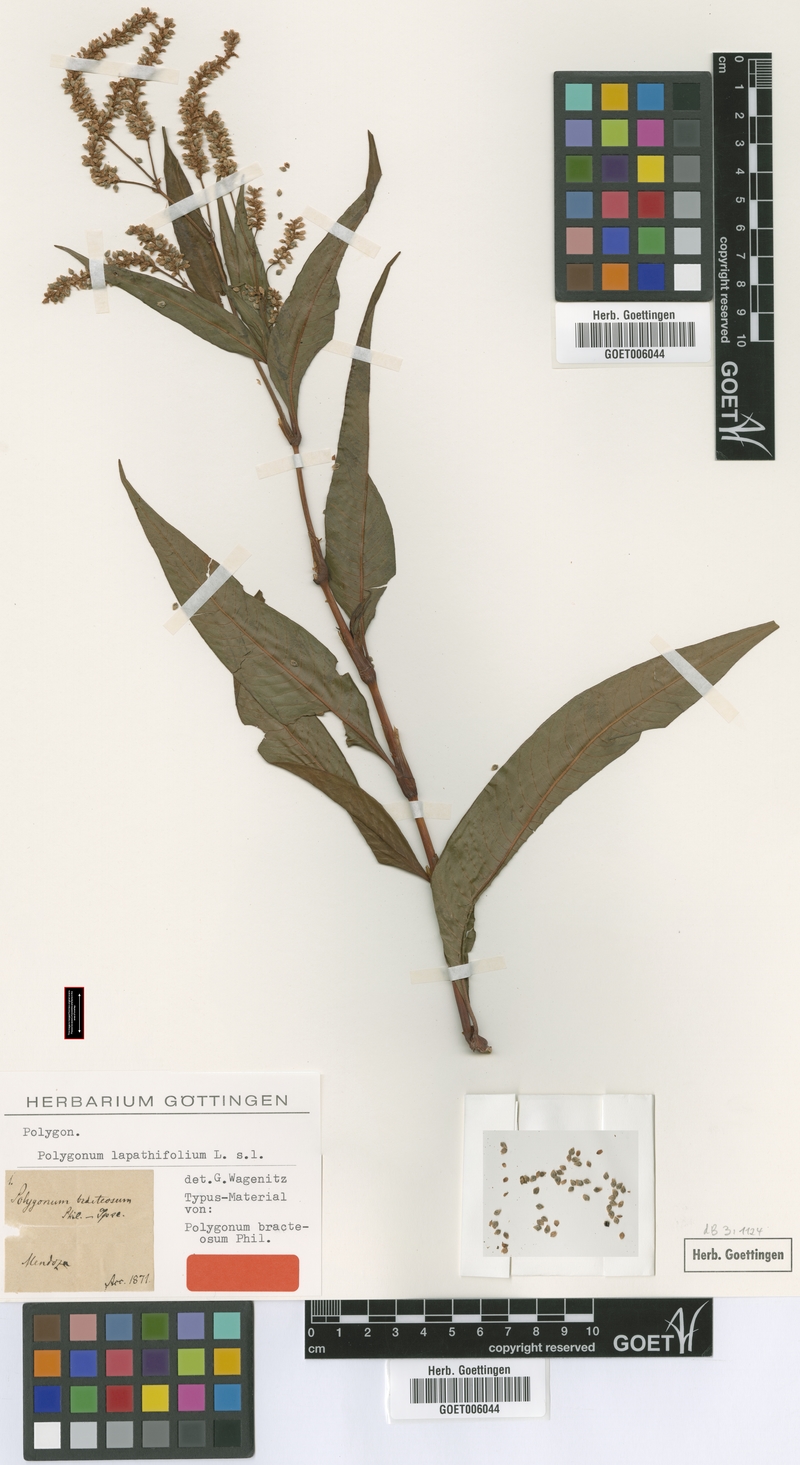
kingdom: Plantae
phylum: Tracheophyta
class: Magnoliopsida
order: Caryophyllales
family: Polygonaceae
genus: Persicaria
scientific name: Persicaria lapathifolia
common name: Curlytop knotweed
